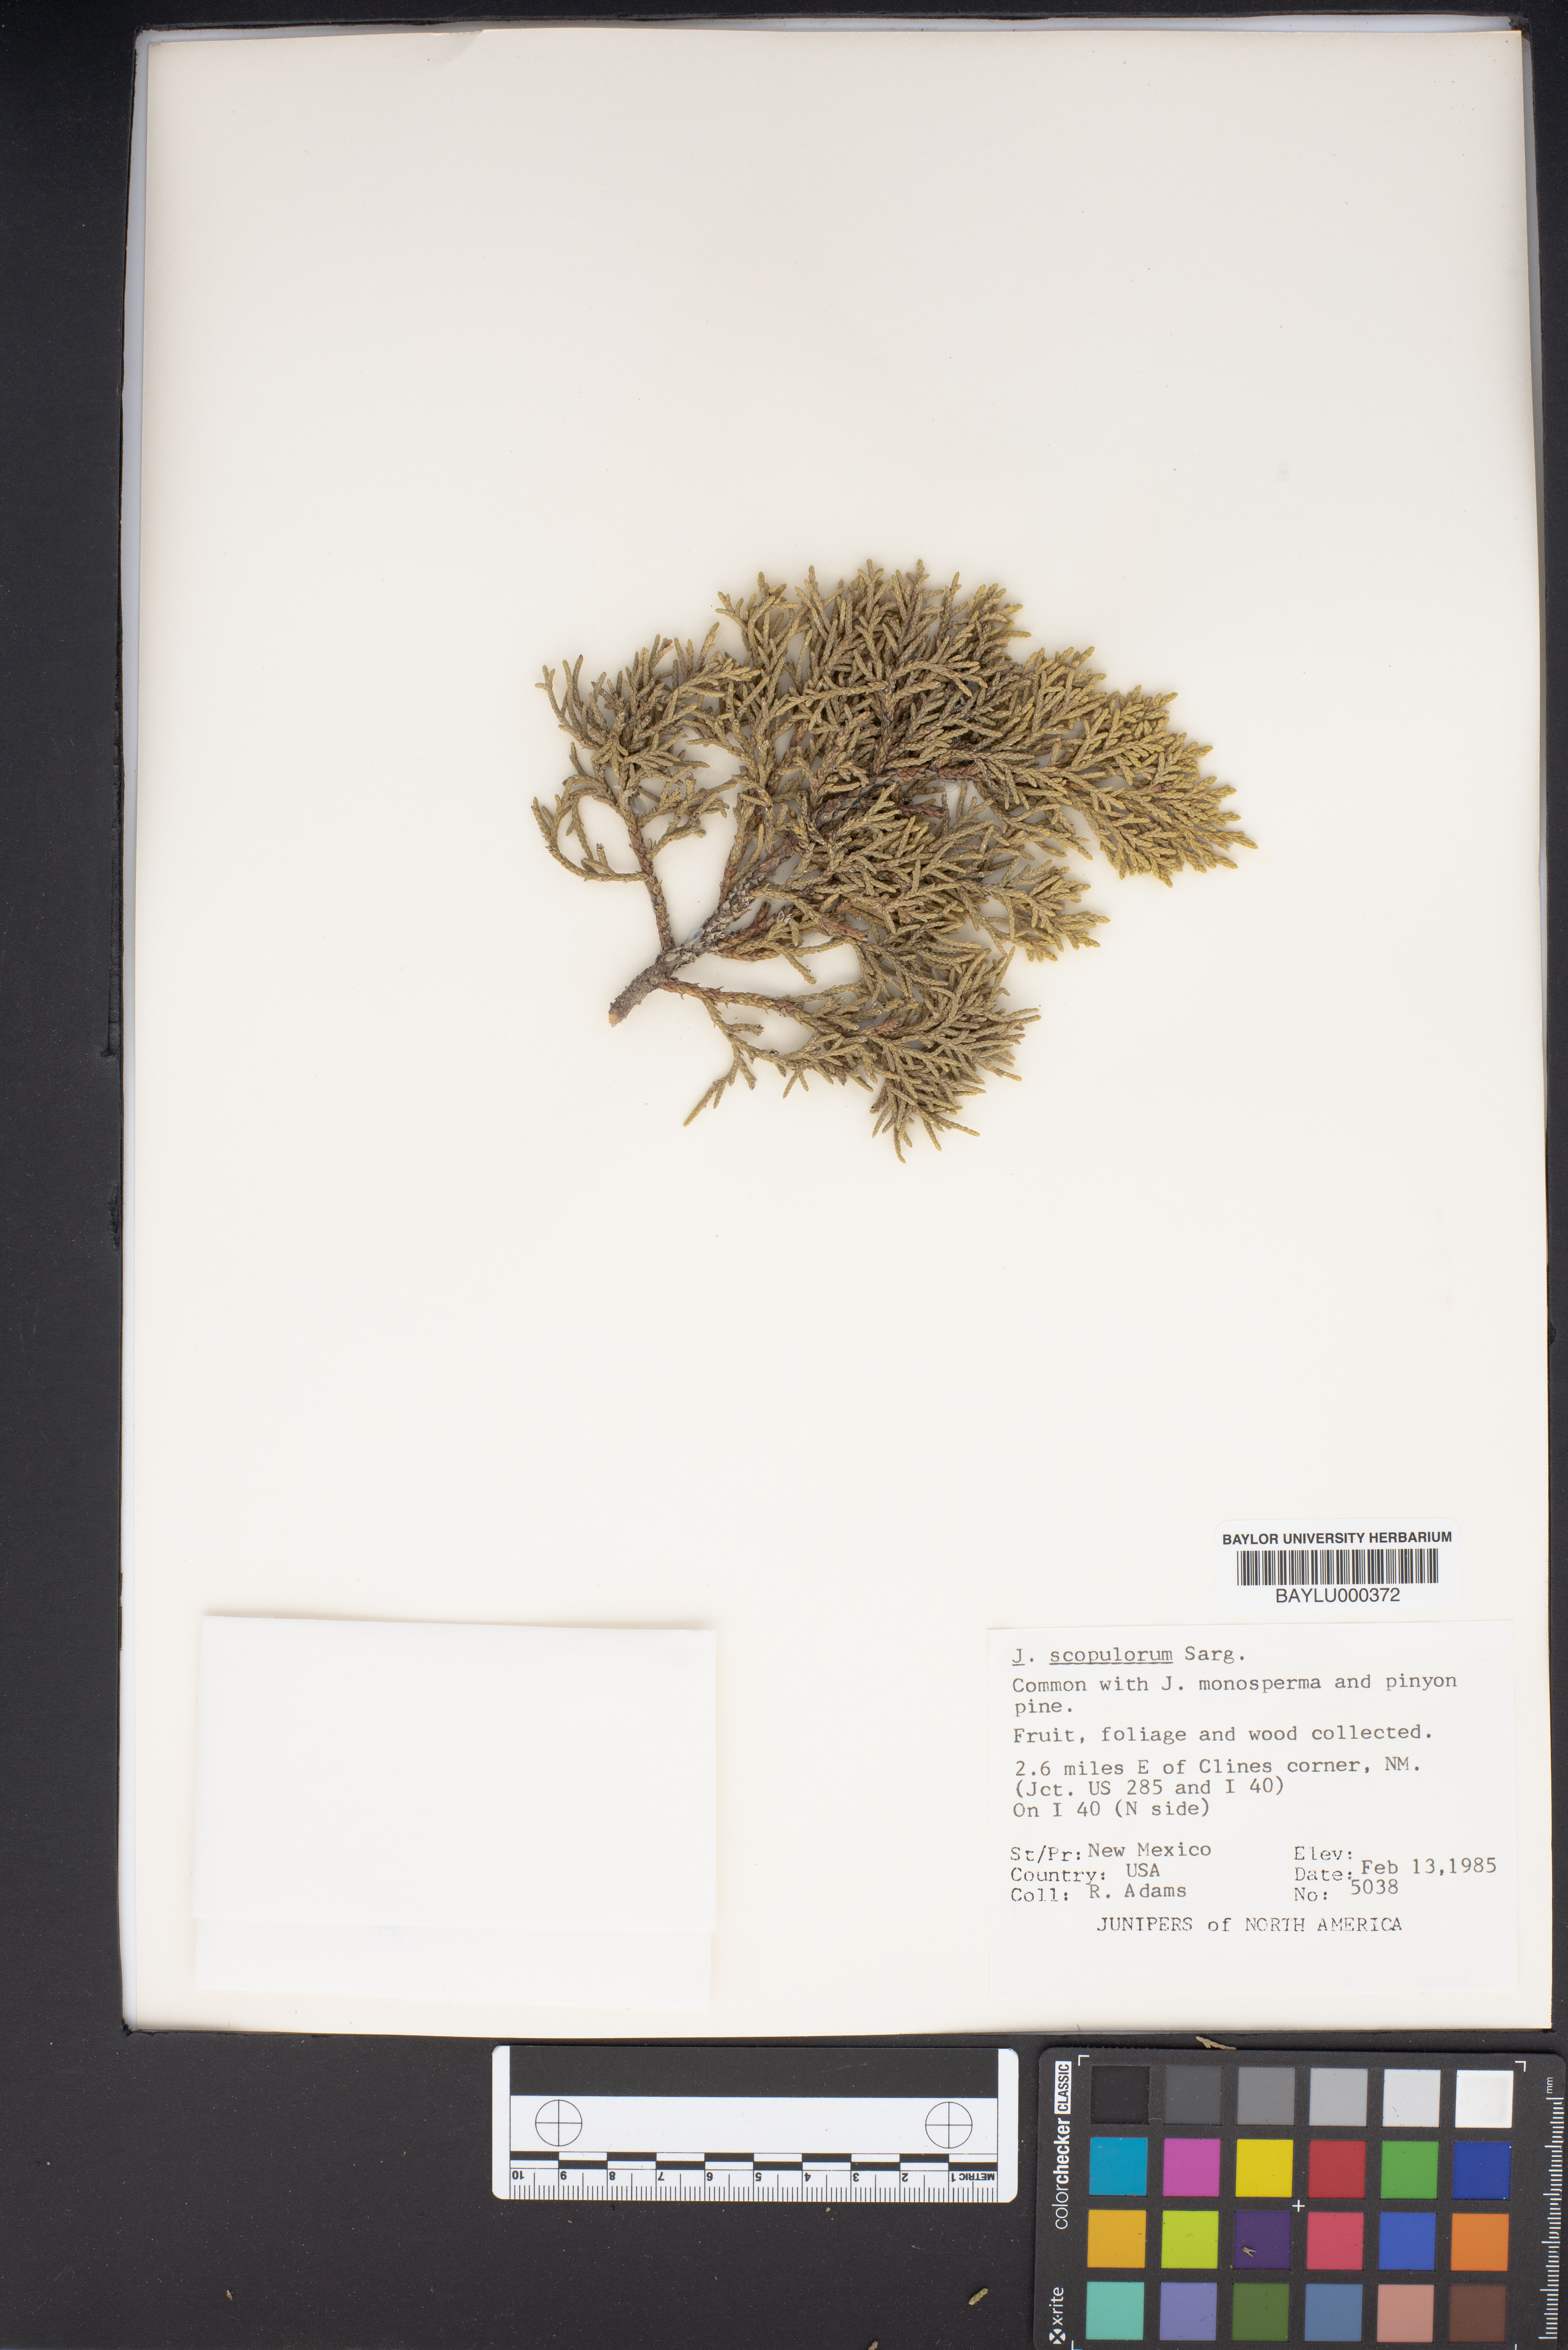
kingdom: Plantae
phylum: Tracheophyta
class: Pinopsida
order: Pinales
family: Cupressaceae
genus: Juniperus
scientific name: Juniperus scopulorum
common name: Rocky mountain juniper
